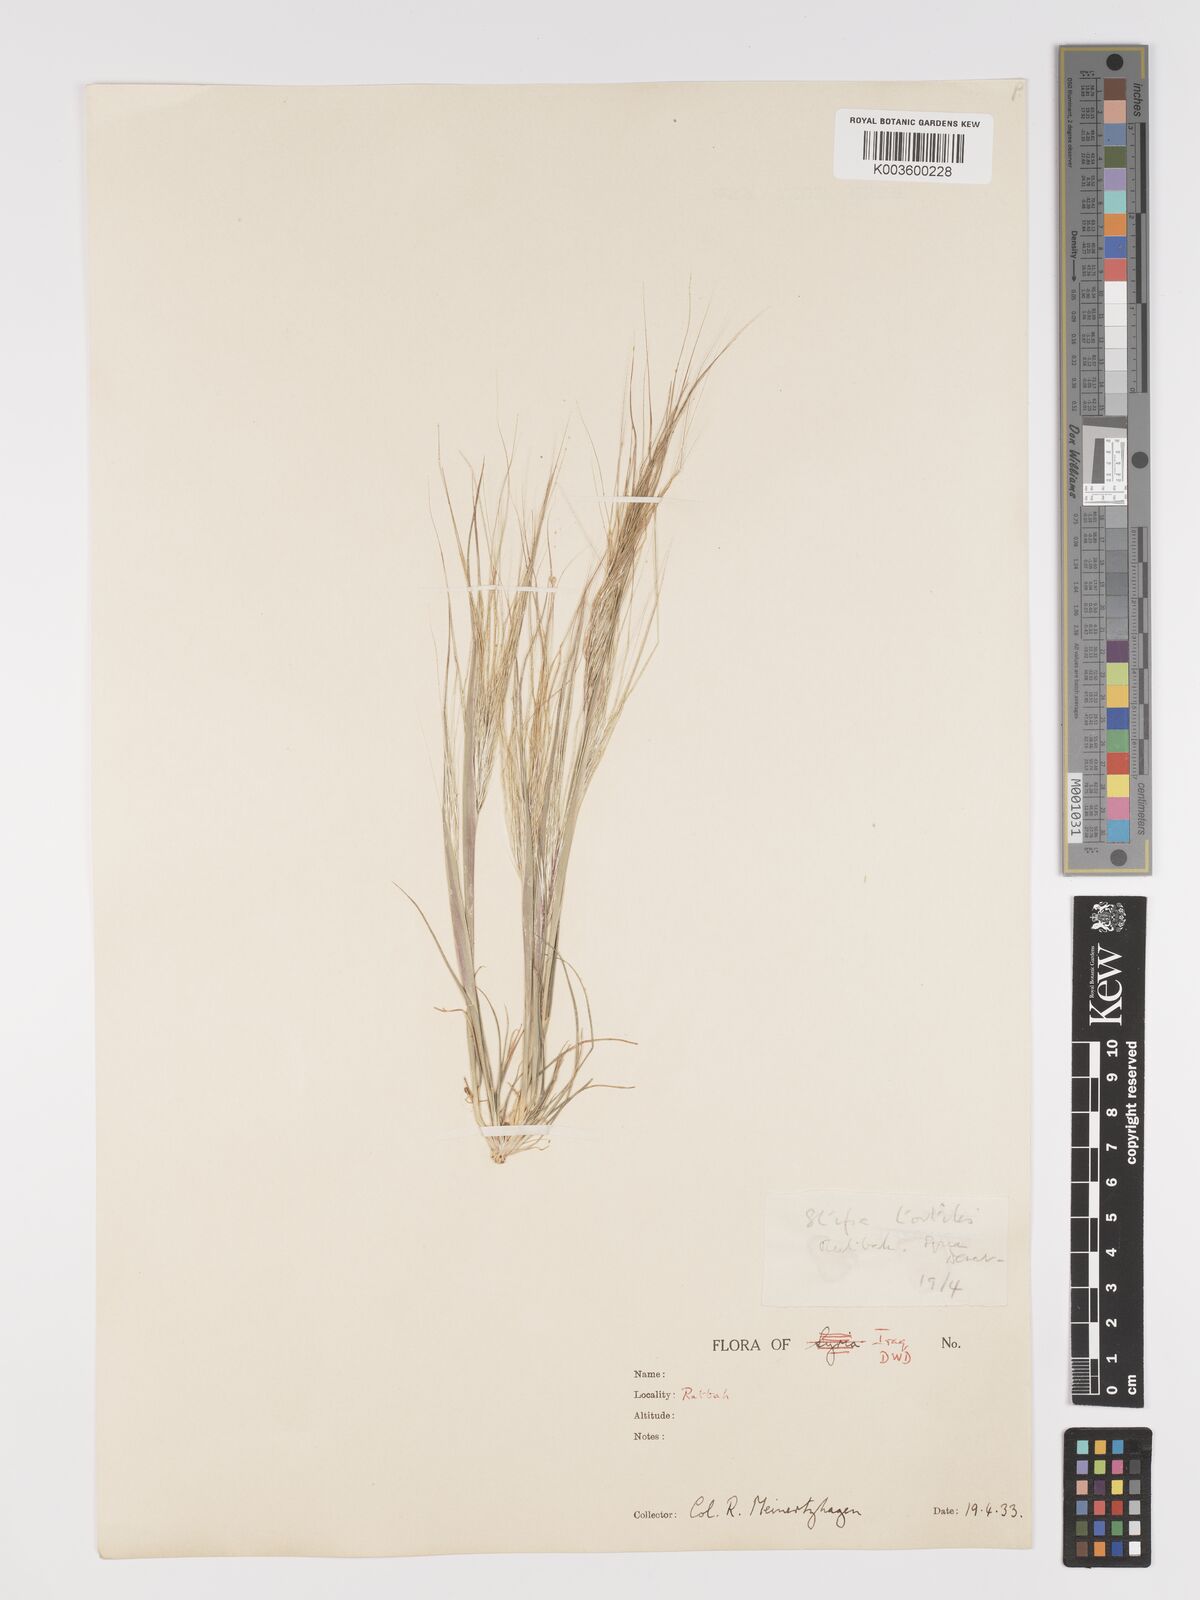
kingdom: Plantae
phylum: Tracheophyta
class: Liliopsida
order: Poales
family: Poaceae
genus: Stipellula
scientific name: Stipellula capensis
